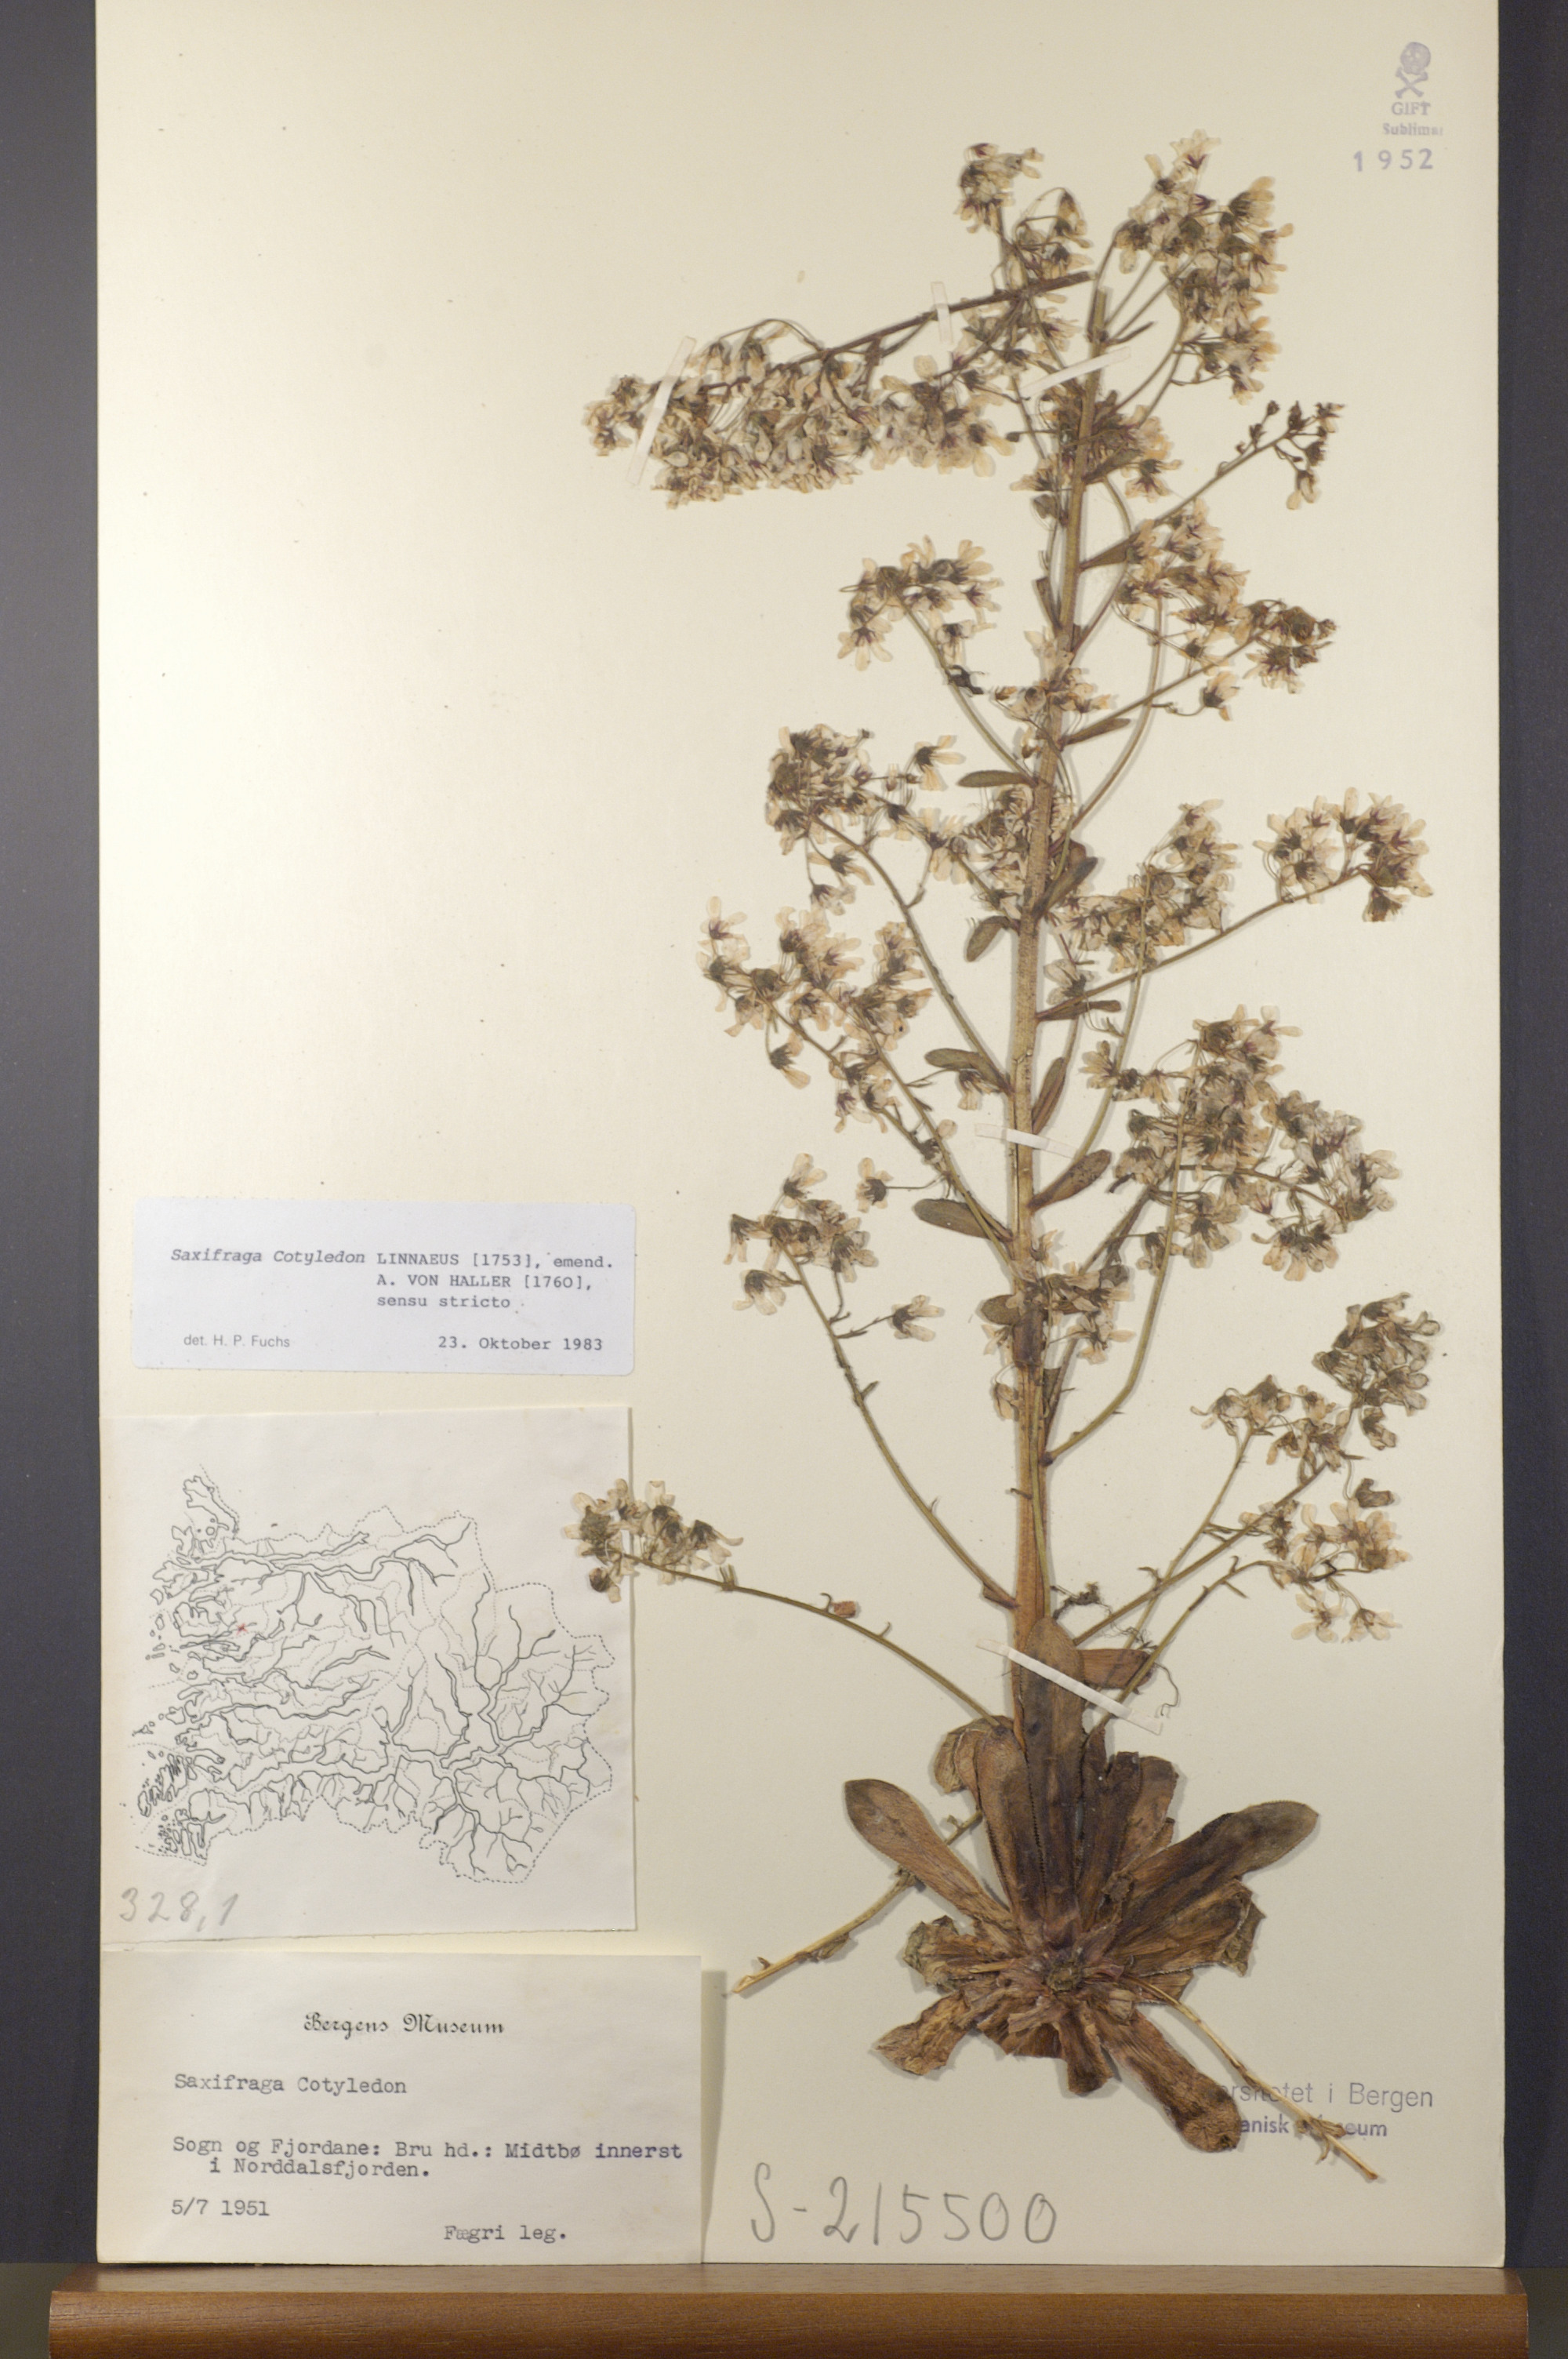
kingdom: Plantae
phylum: Tracheophyta
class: Magnoliopsida
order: Saxifragales
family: Saxifragaceae
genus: Saxifraga
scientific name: Saxifraga cotyledon
